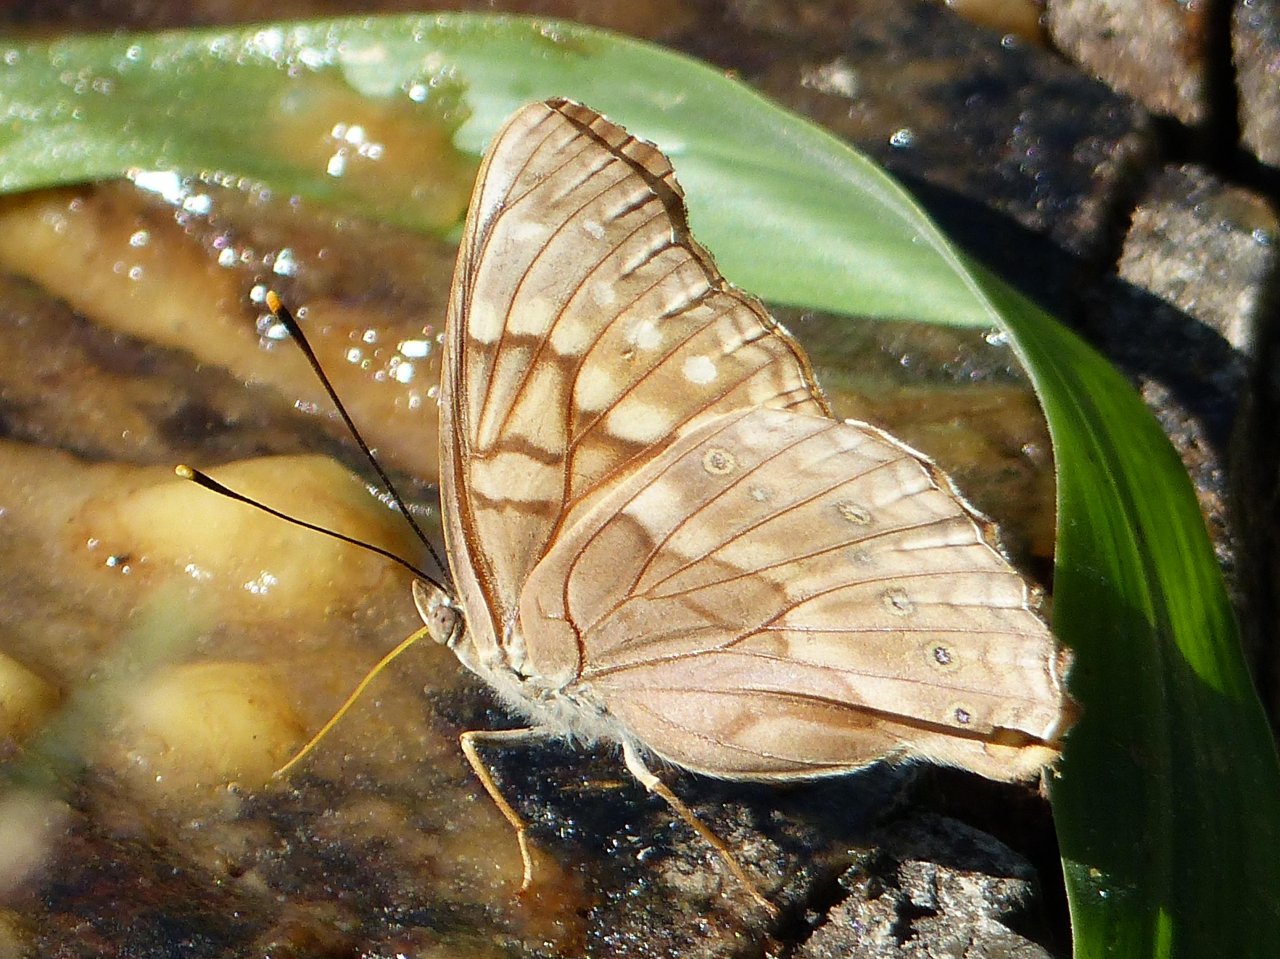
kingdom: Animalia
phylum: Arthropoda
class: Insecta
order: Lepidoptera
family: Nymphalidae
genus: Asterocampa
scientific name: Asterocampa clyton
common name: Tawny Emperor
